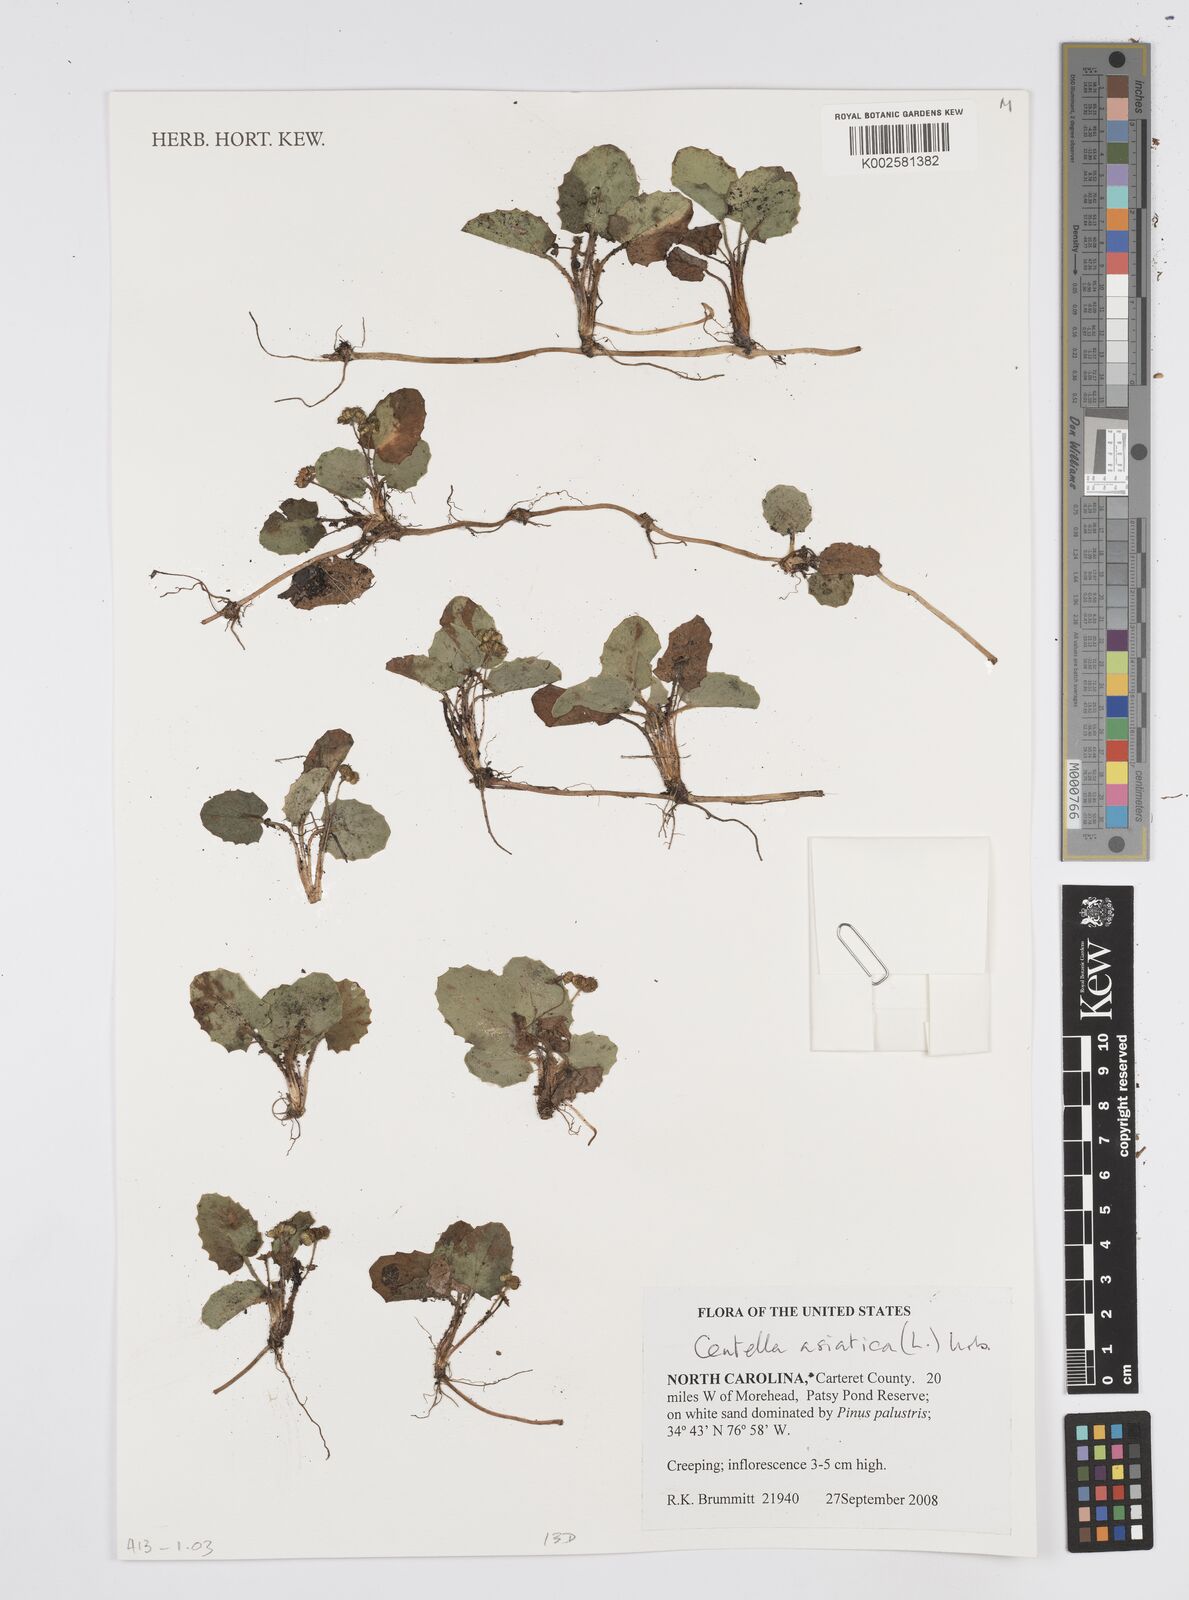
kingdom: Plantae
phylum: Tracheophyta
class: Magnoliopsida
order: Apiales
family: Apiaceae
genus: Centella
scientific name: Centella erecta
